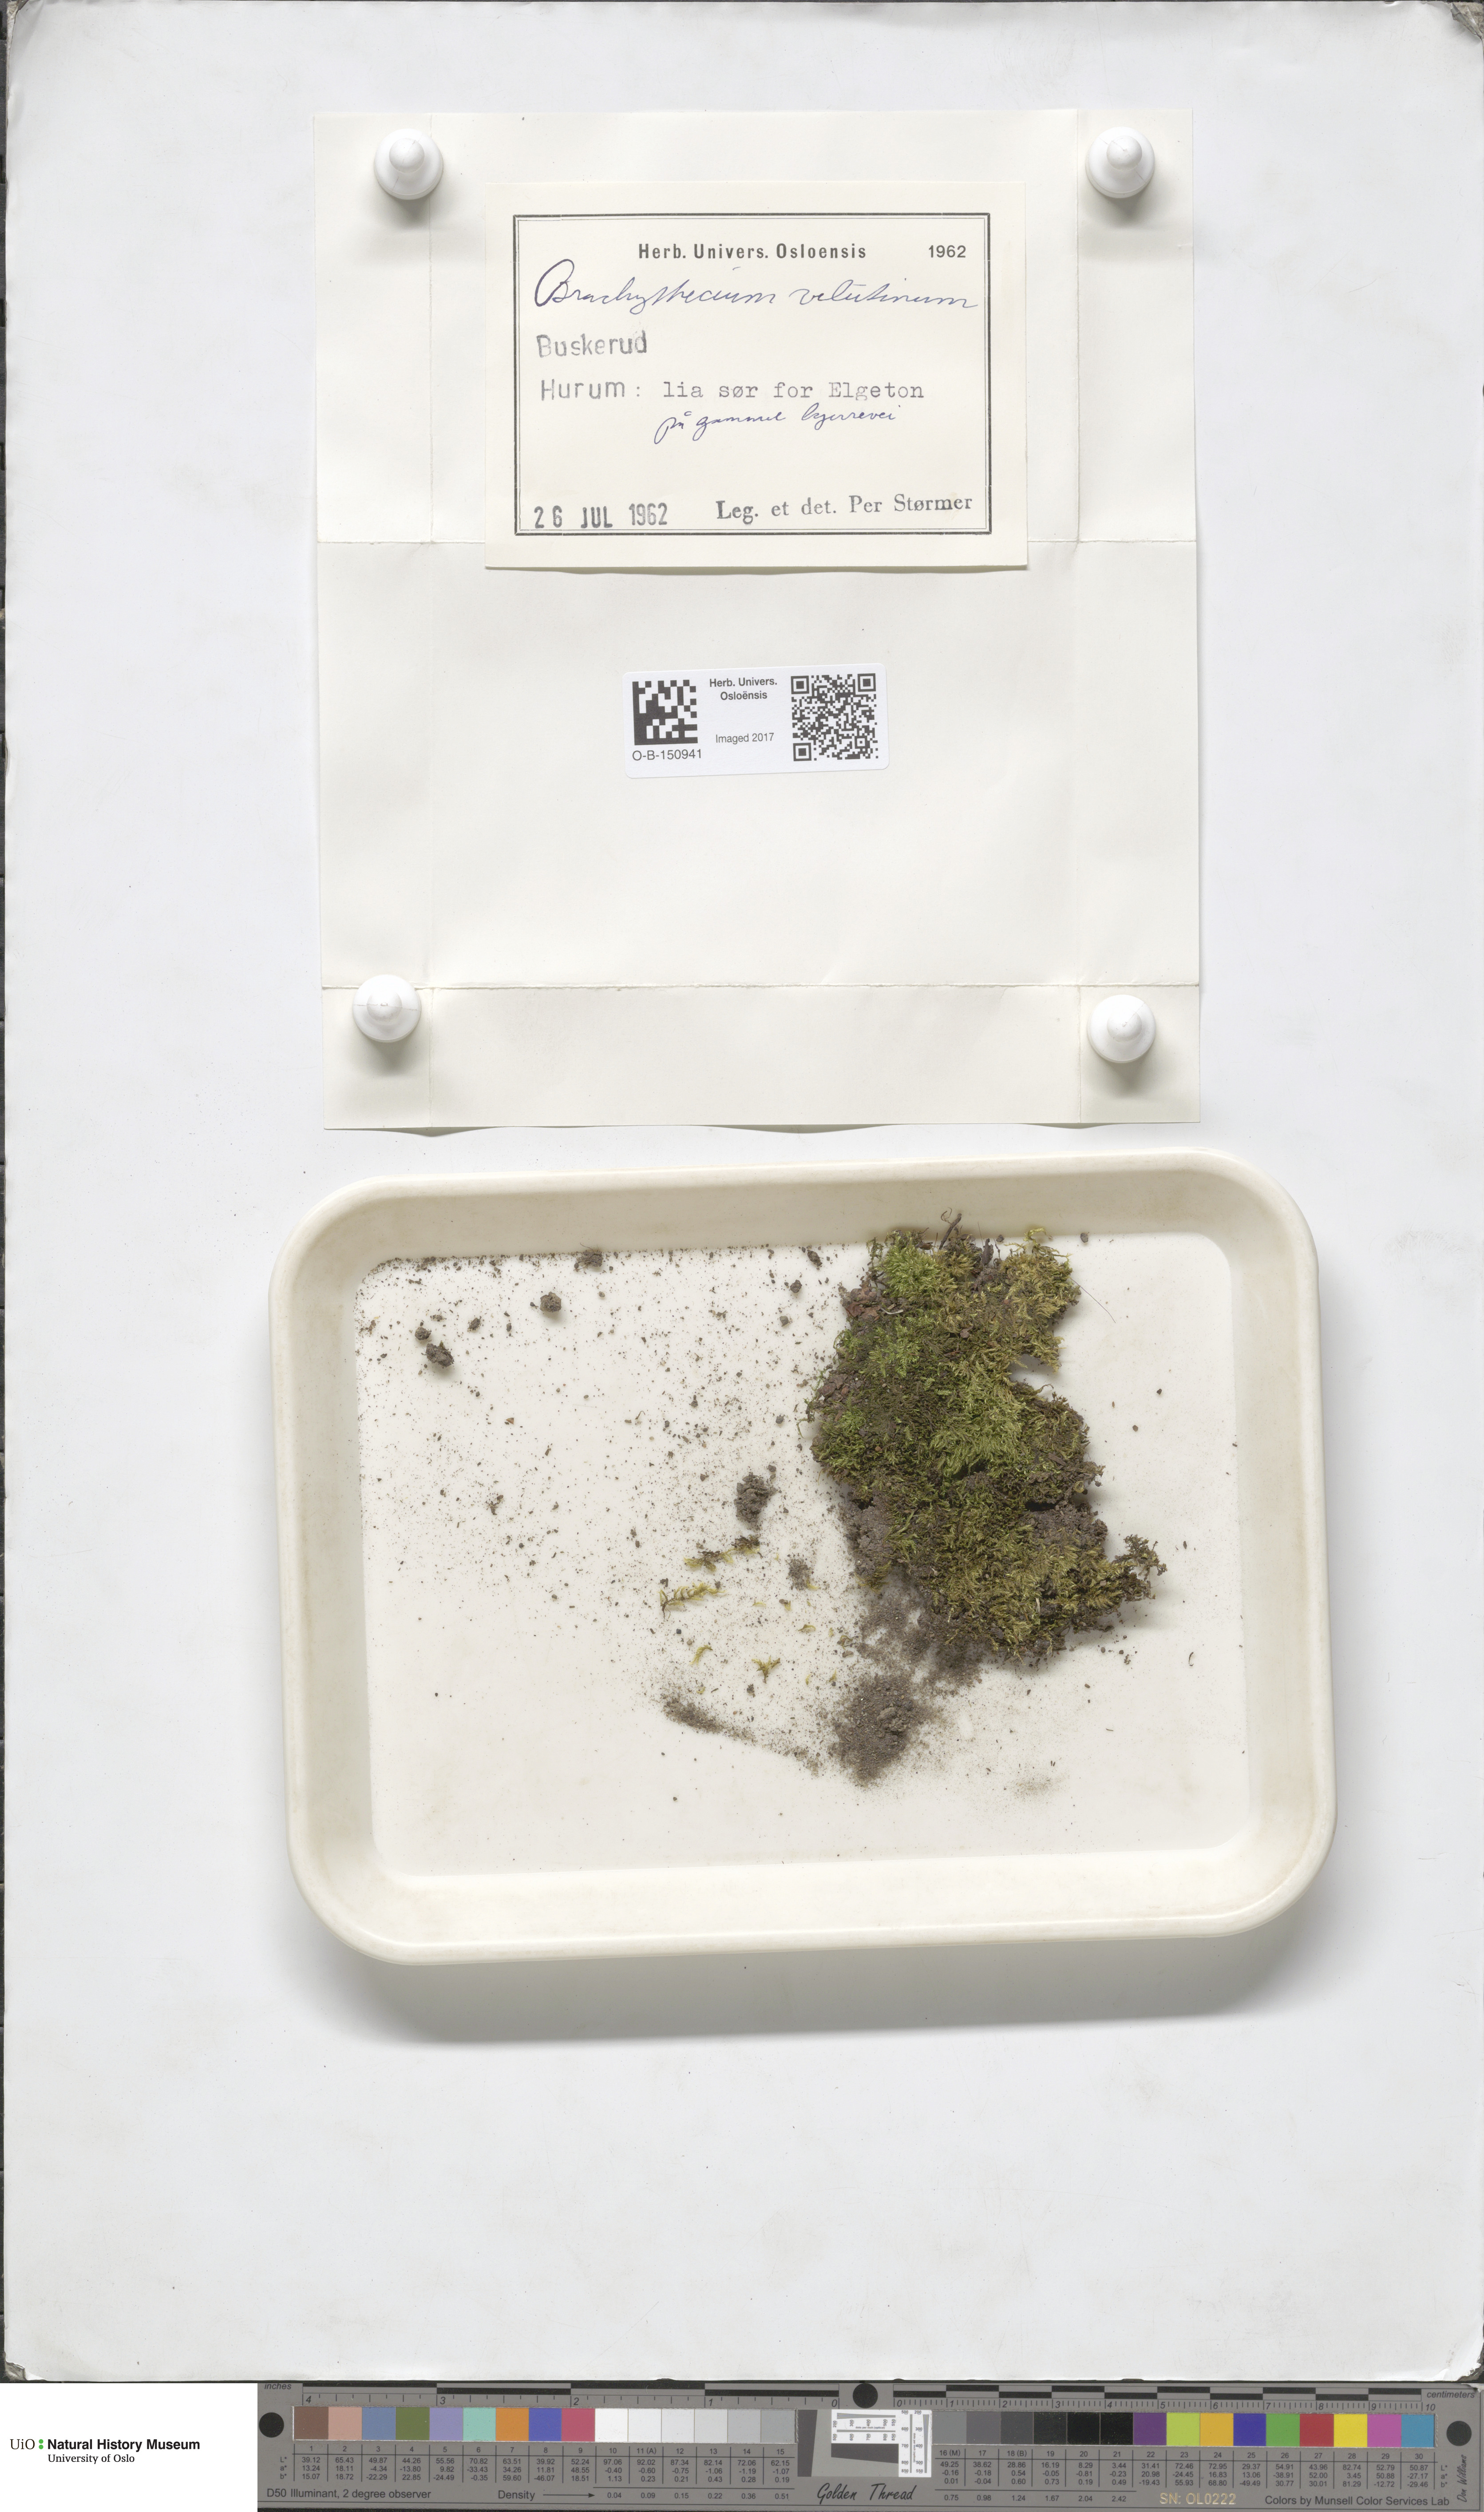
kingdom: Plantae
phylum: Bryophyta
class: Bryopsida
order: Hypnales
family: Brachytheciaceae
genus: Brachytheciastrum
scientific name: Brachytheciastrum velutinum
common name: Velvet feather-moss
